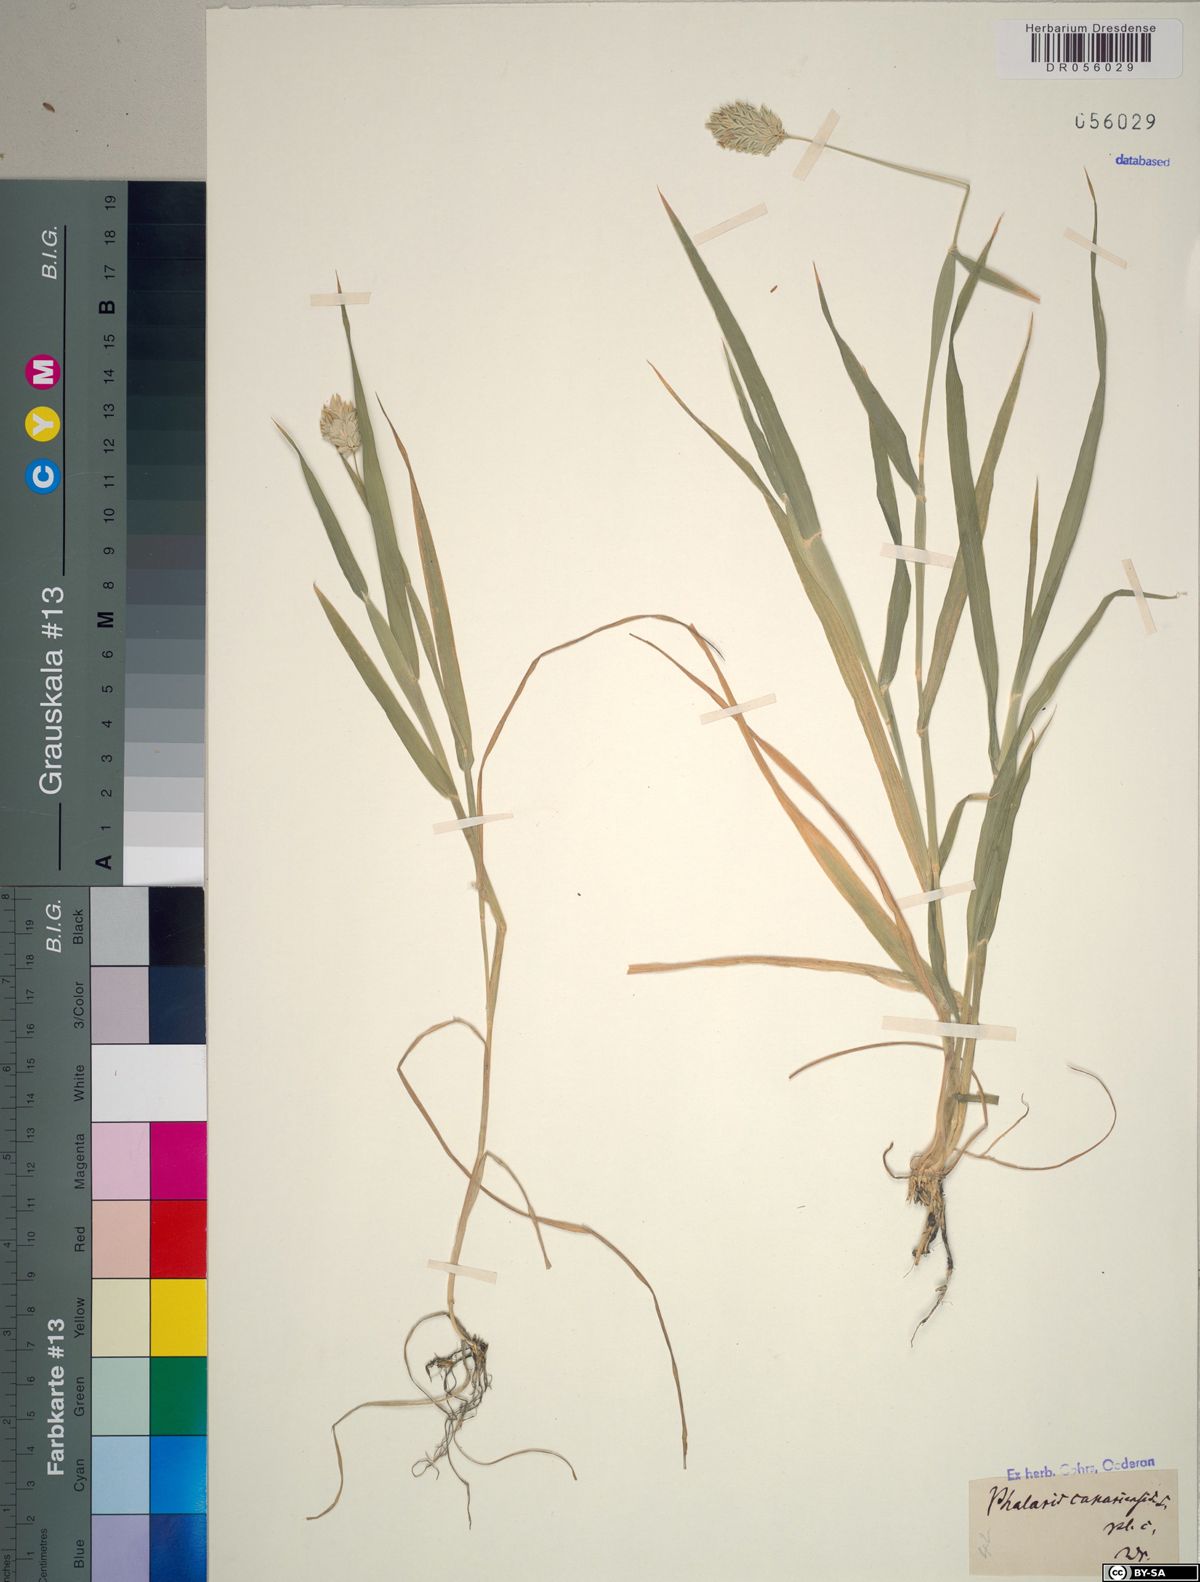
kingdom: Plantae
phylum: Tracheophyta
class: Liliopsida
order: Poales
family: Poaceae
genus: Phalaris
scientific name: Phalaris canariensis
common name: Annual canarygrass
